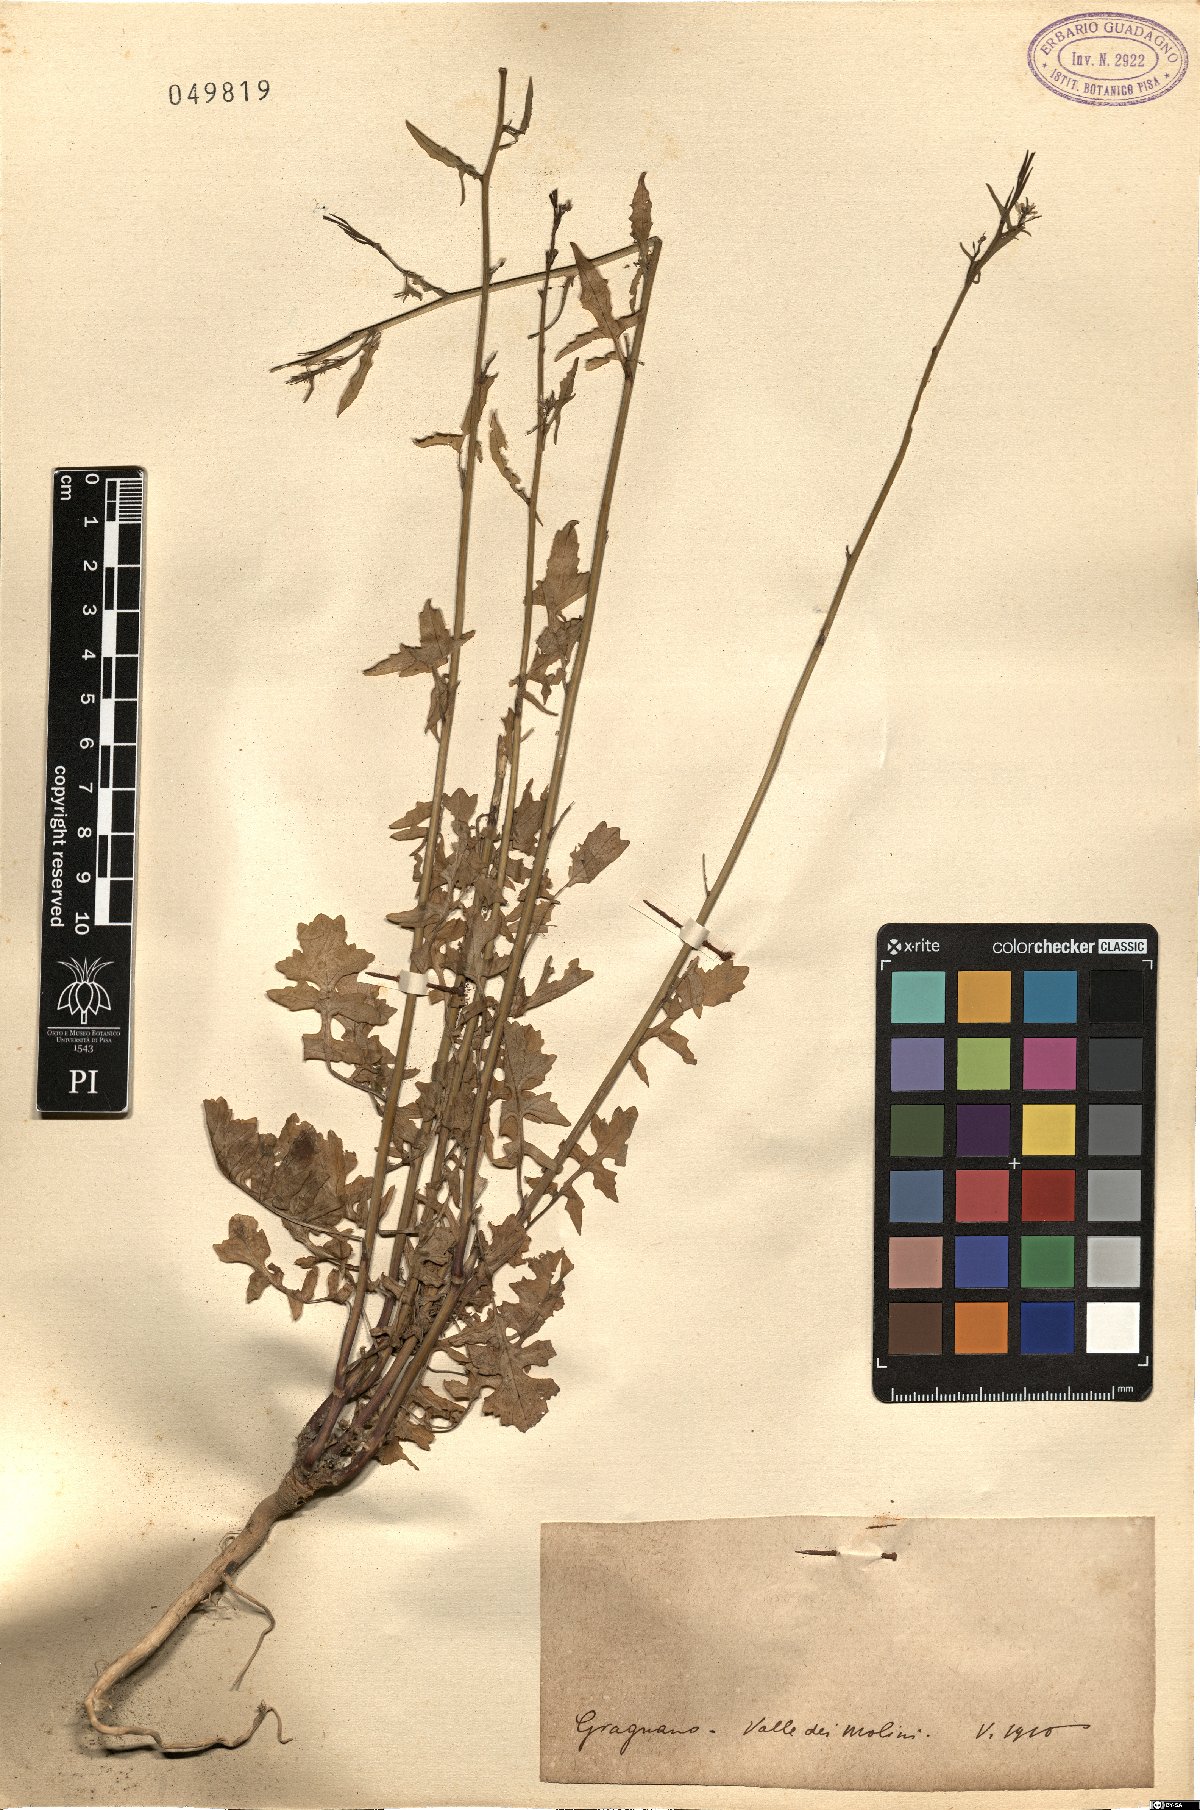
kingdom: Plantae
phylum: Tracheophyta
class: Magnoliopsida
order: Brassicales
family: Brassicaceae
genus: Sisymbrium
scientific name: Sisymbrium
